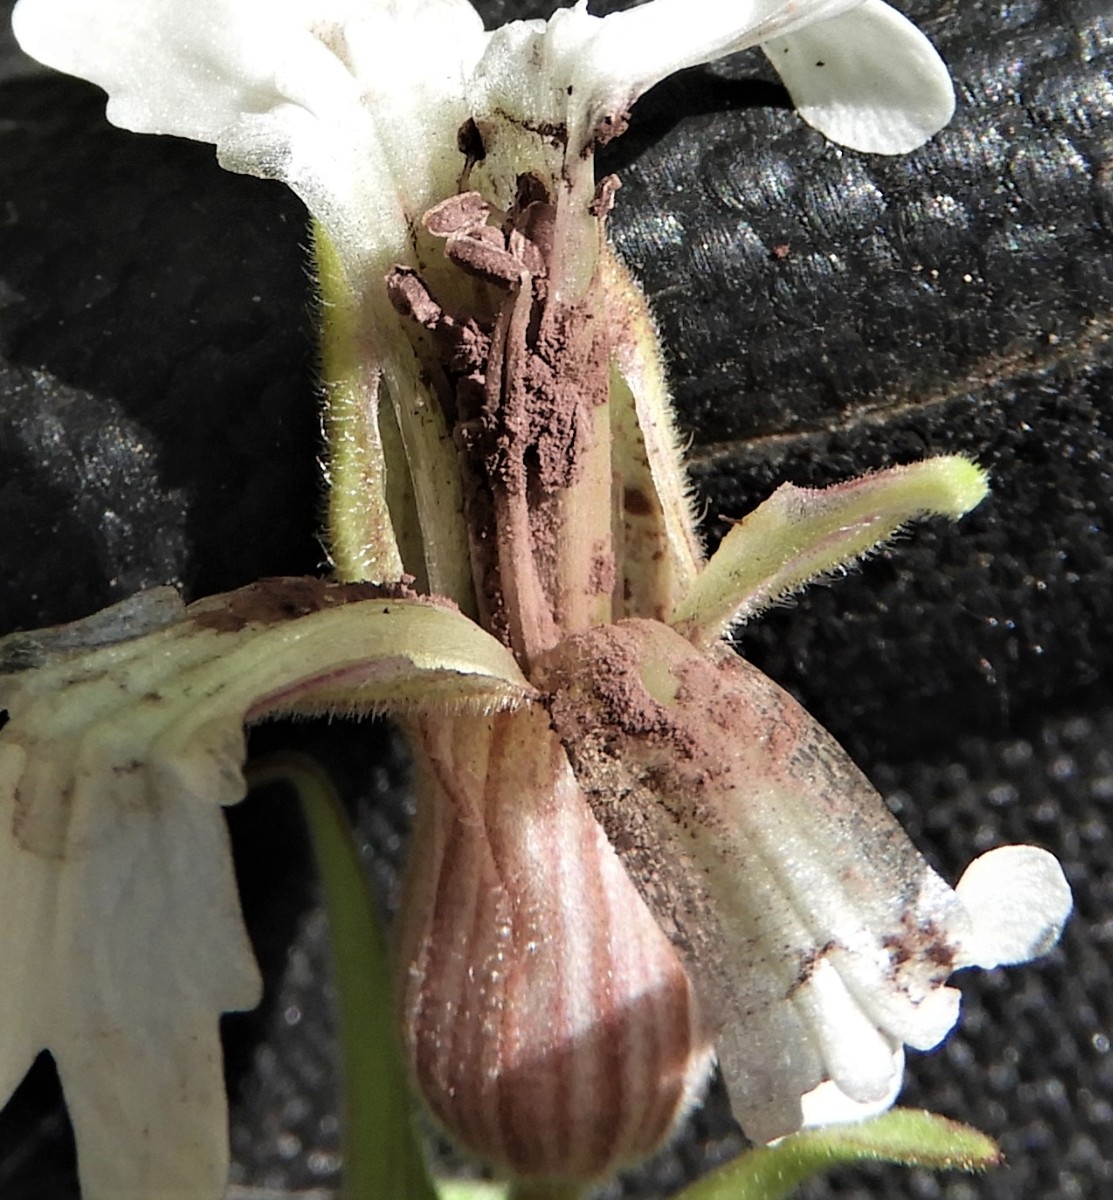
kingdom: Fungi
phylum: Basidiomycota
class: Microbotryomycetes
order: Microbotryales
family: Microbotryaceae
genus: Microbotryum
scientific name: Microbotryum lychnidis-dioicae
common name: Campion anther smut
